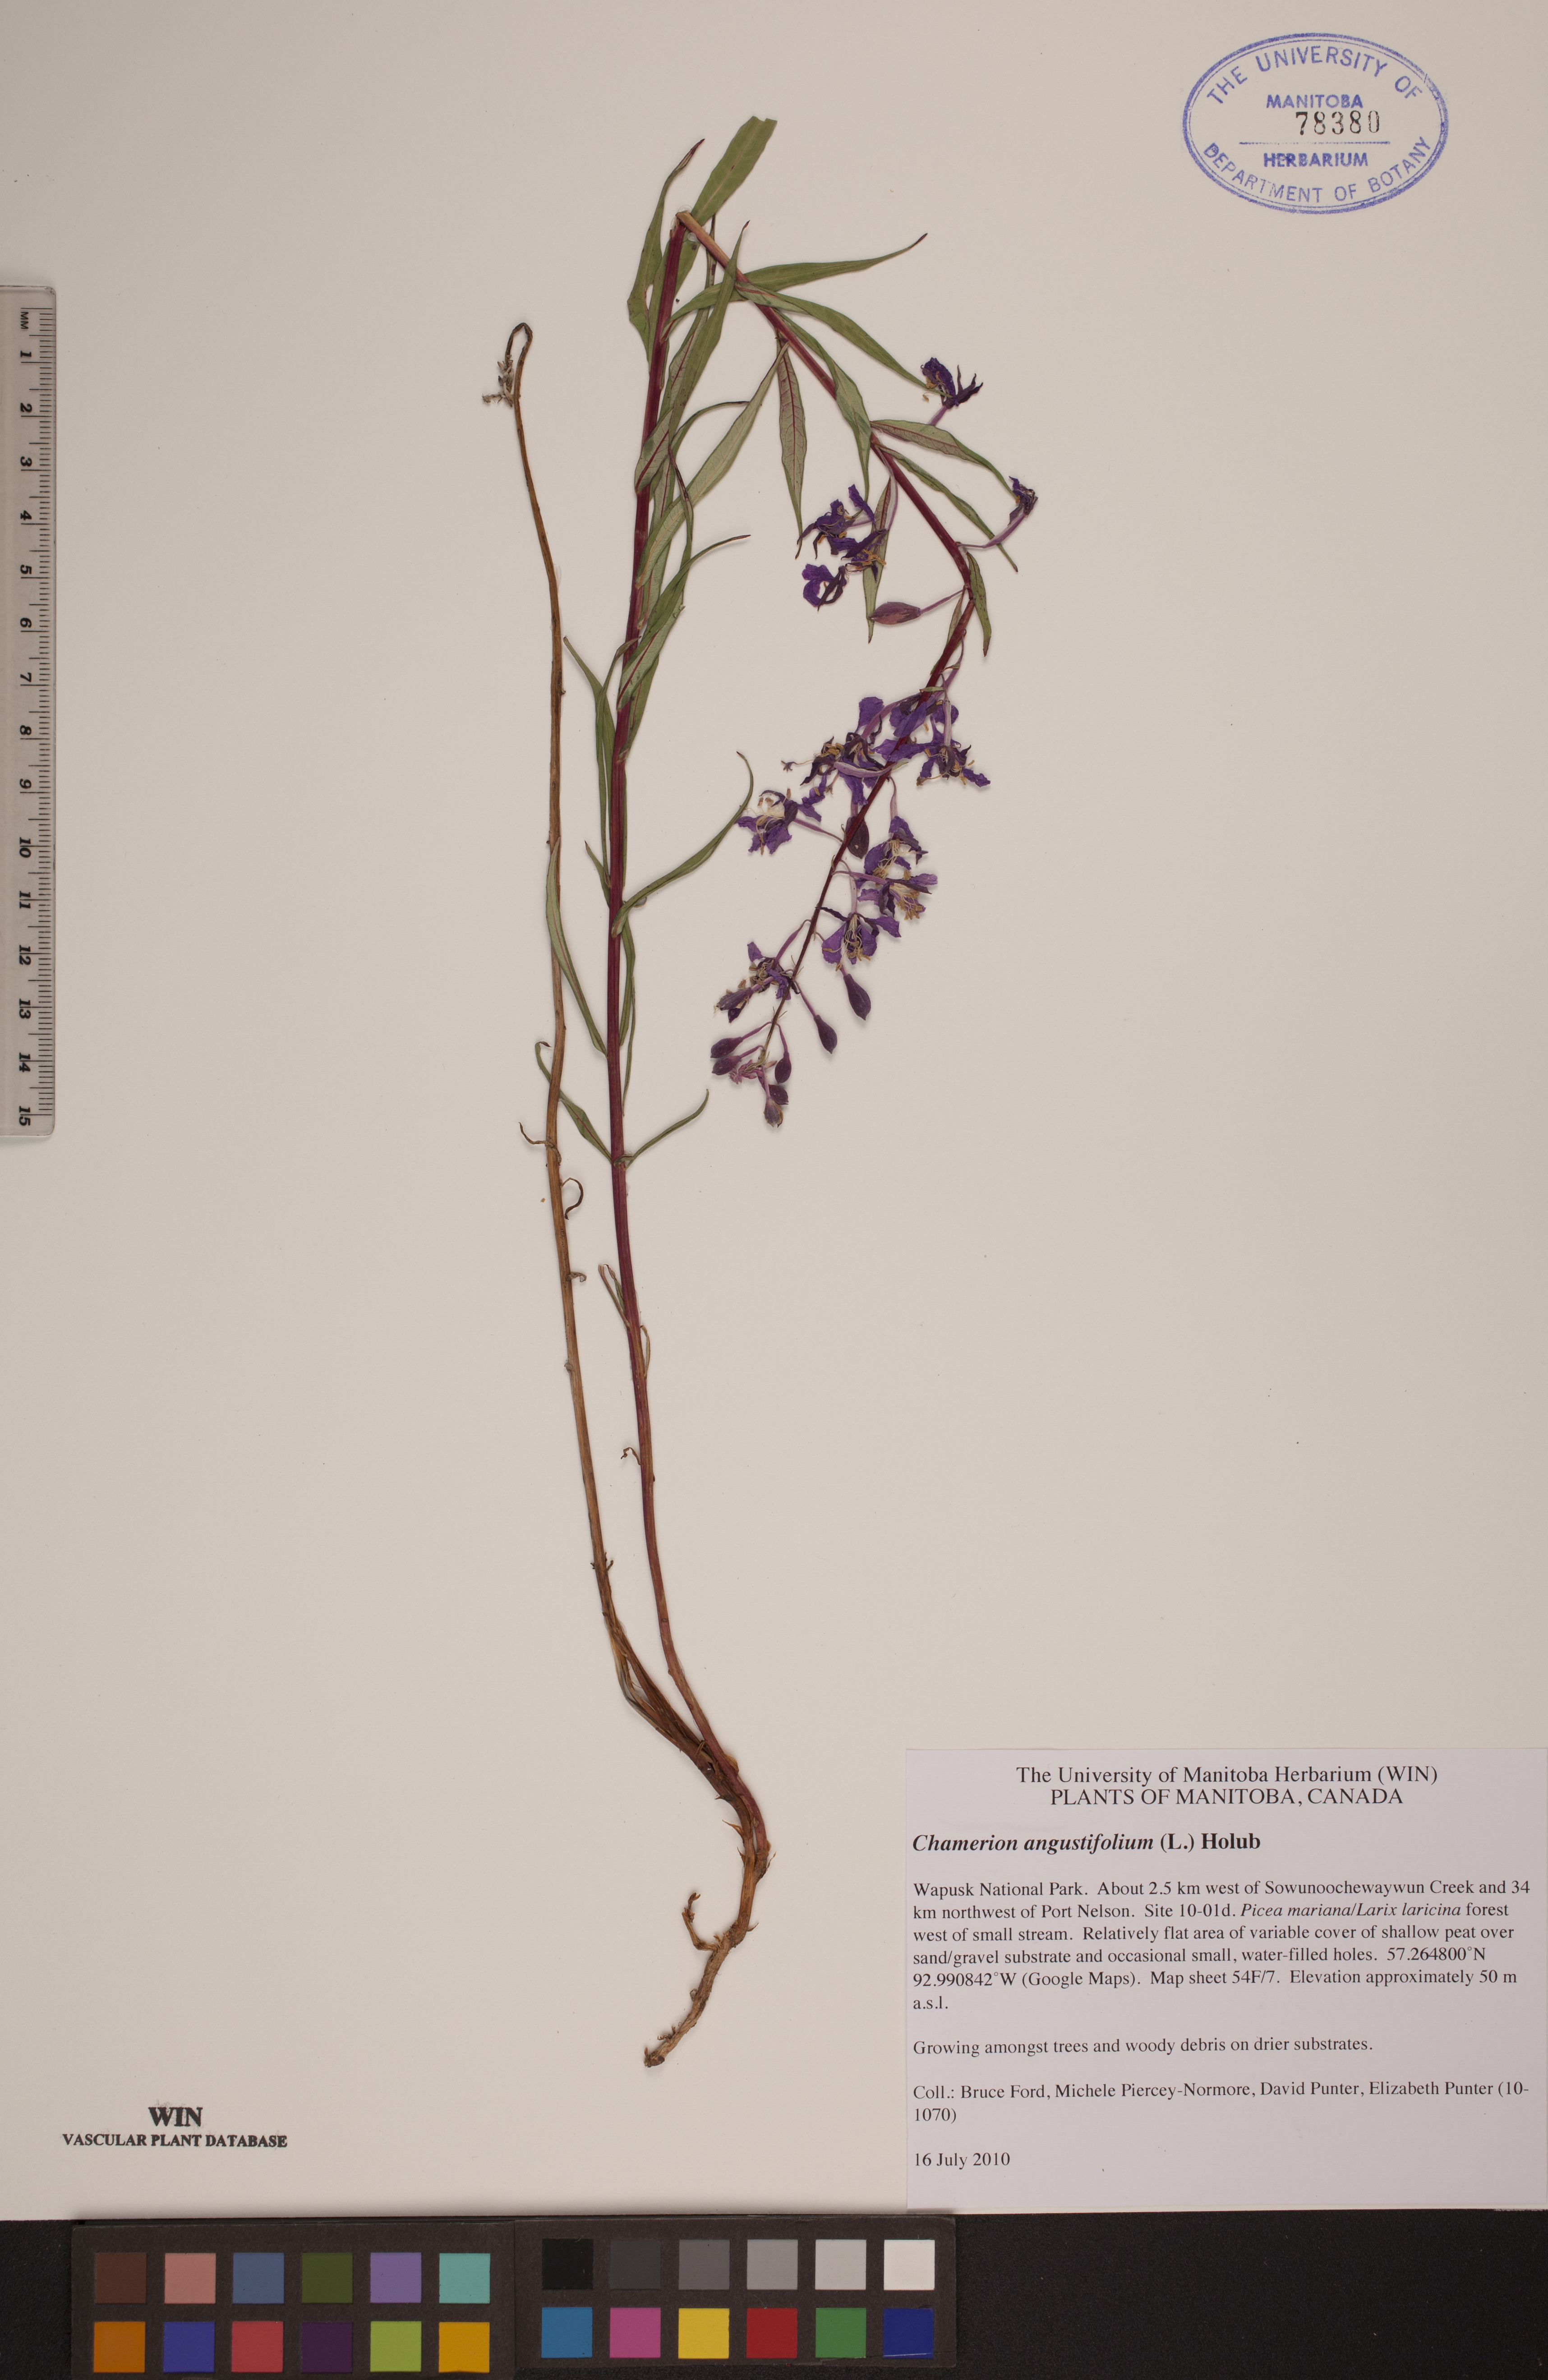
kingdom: Plantae
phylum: Tracheophyta
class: Magnoliopsida
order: Myrtales
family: Onagraceae
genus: Chamaenerion
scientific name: Chamaenerion angustifolium
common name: Fireweed
